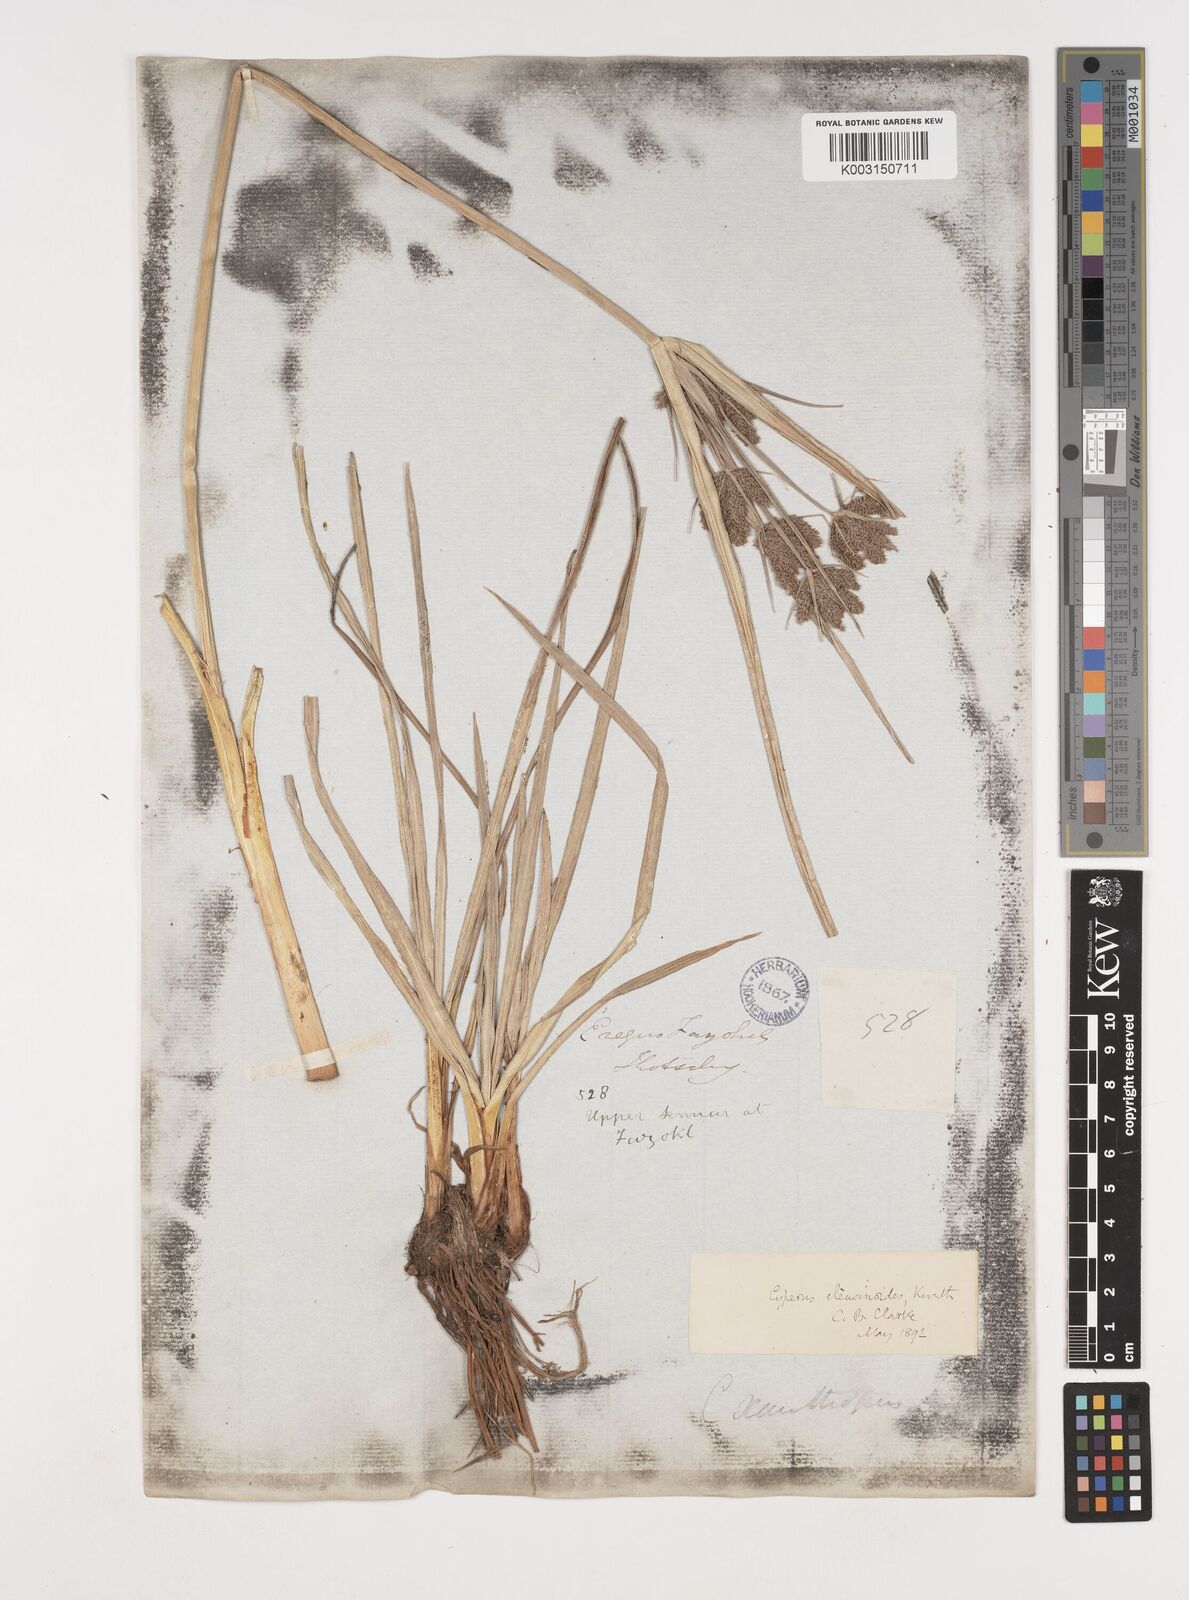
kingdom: Plantae
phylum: Tracheophyta
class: Liliopsida
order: Poales
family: Cyperaceae
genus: Cyperus
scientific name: Cyperus nutans
